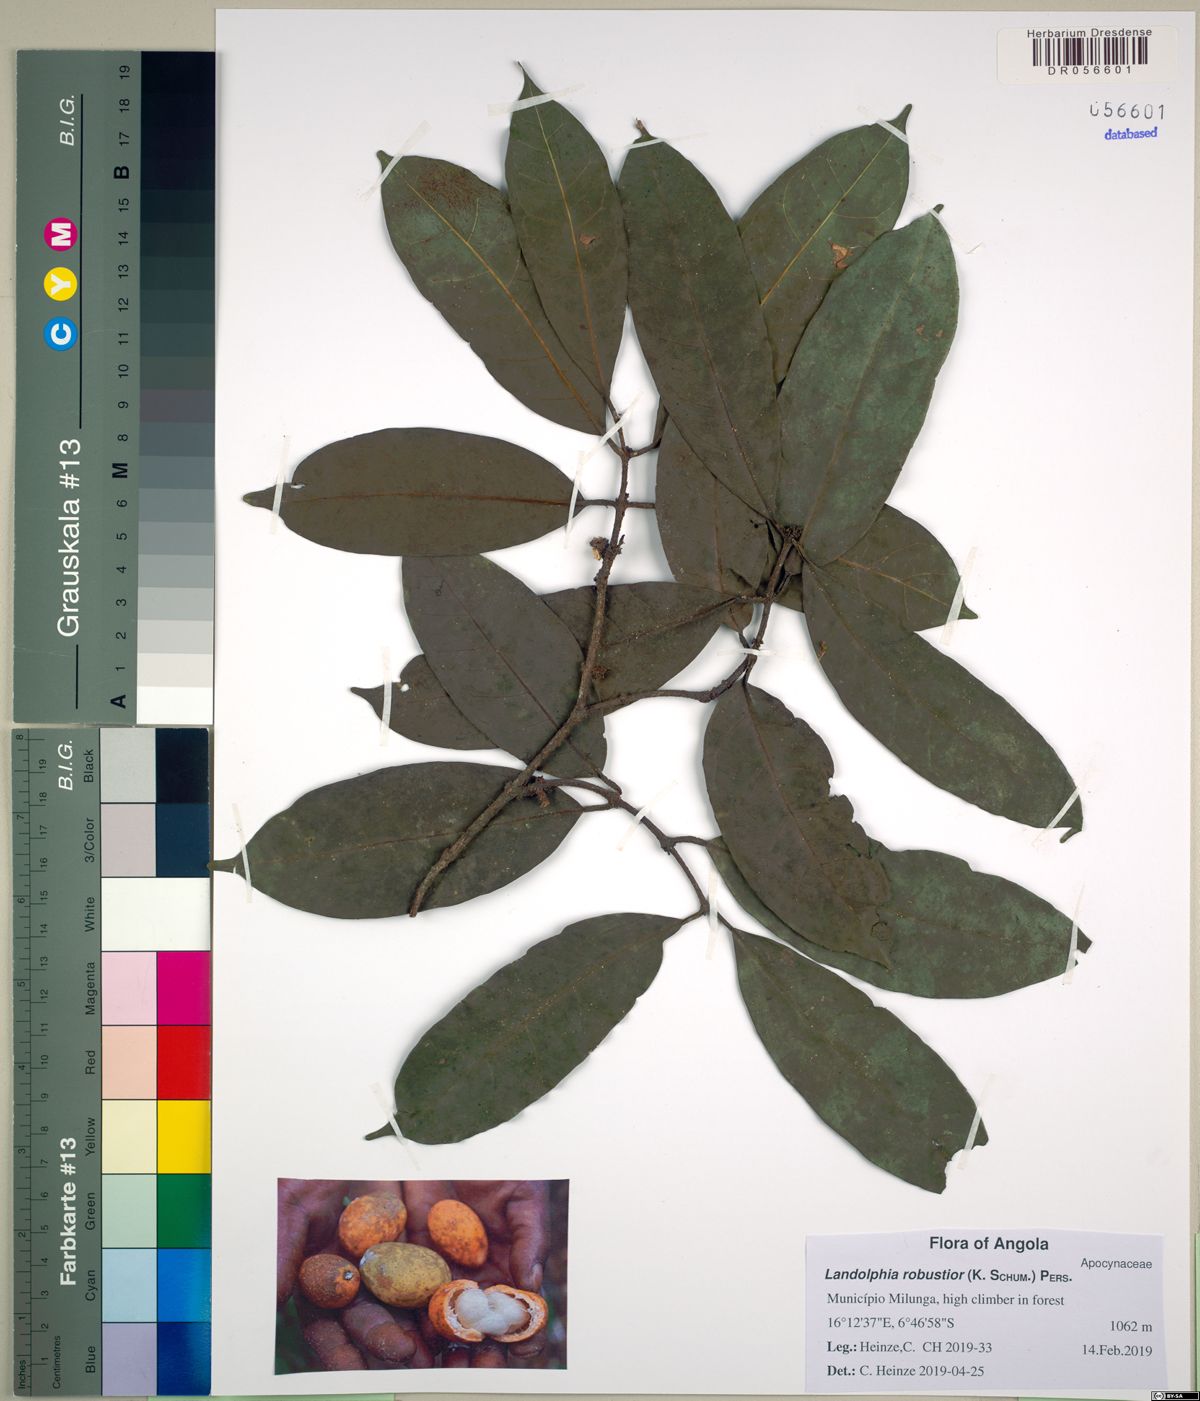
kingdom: Plantae
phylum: Tracheophyta
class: Magnoliopsida
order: Gentianales
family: Apocynaceae
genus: Landolphia
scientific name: Landolphia robustior
